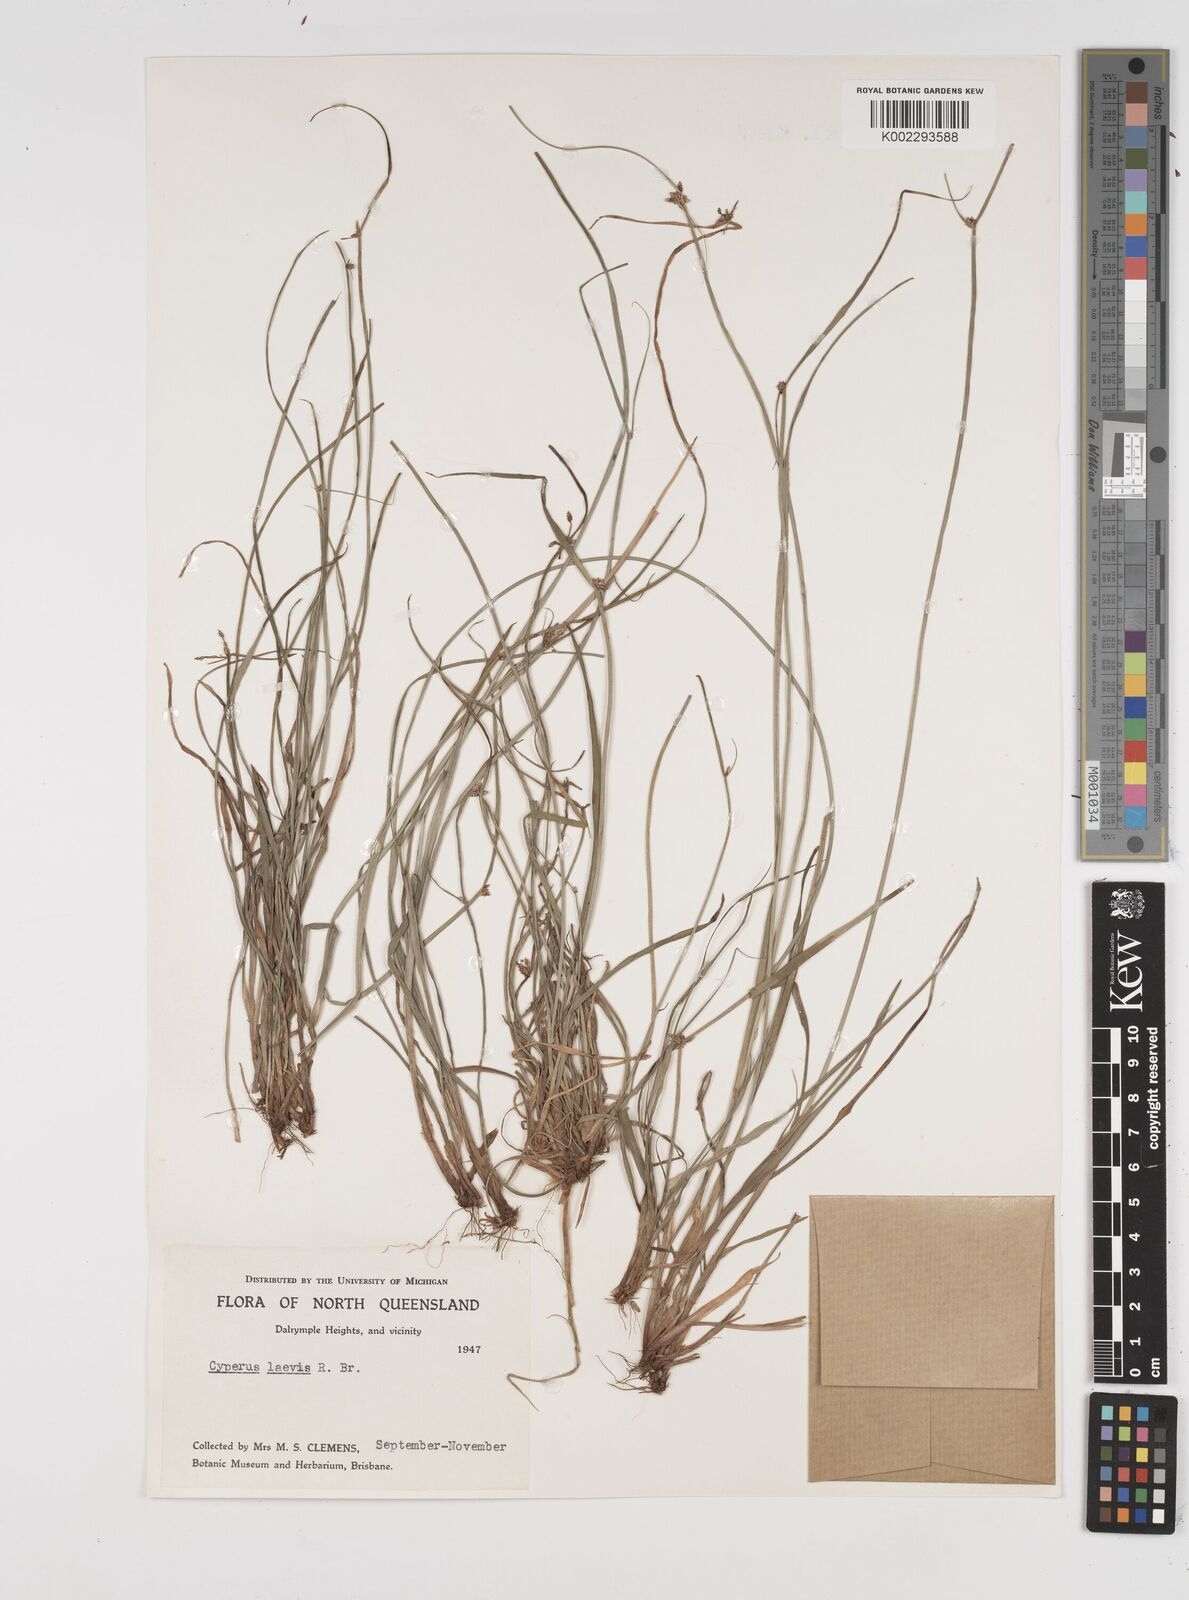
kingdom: Plantae
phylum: Tracheophyta
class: Liliopsida
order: Poales
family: Cyperaceae
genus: Cyperus
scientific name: Cyperus laevis
